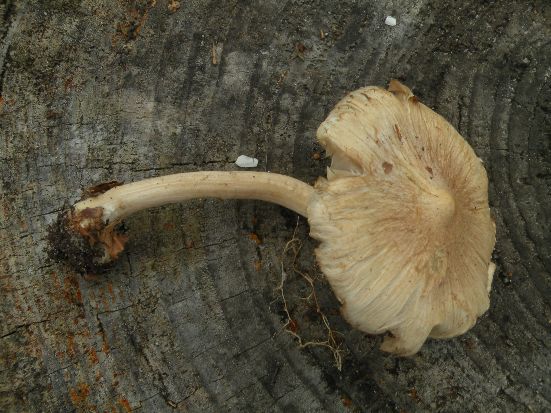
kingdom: Fungi
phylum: Basidiomycota
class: Agaricomycetes
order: Agaricales
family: Inocybaceae
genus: Inocybe
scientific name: Inocybe sindonia
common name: bleg trævlhat
